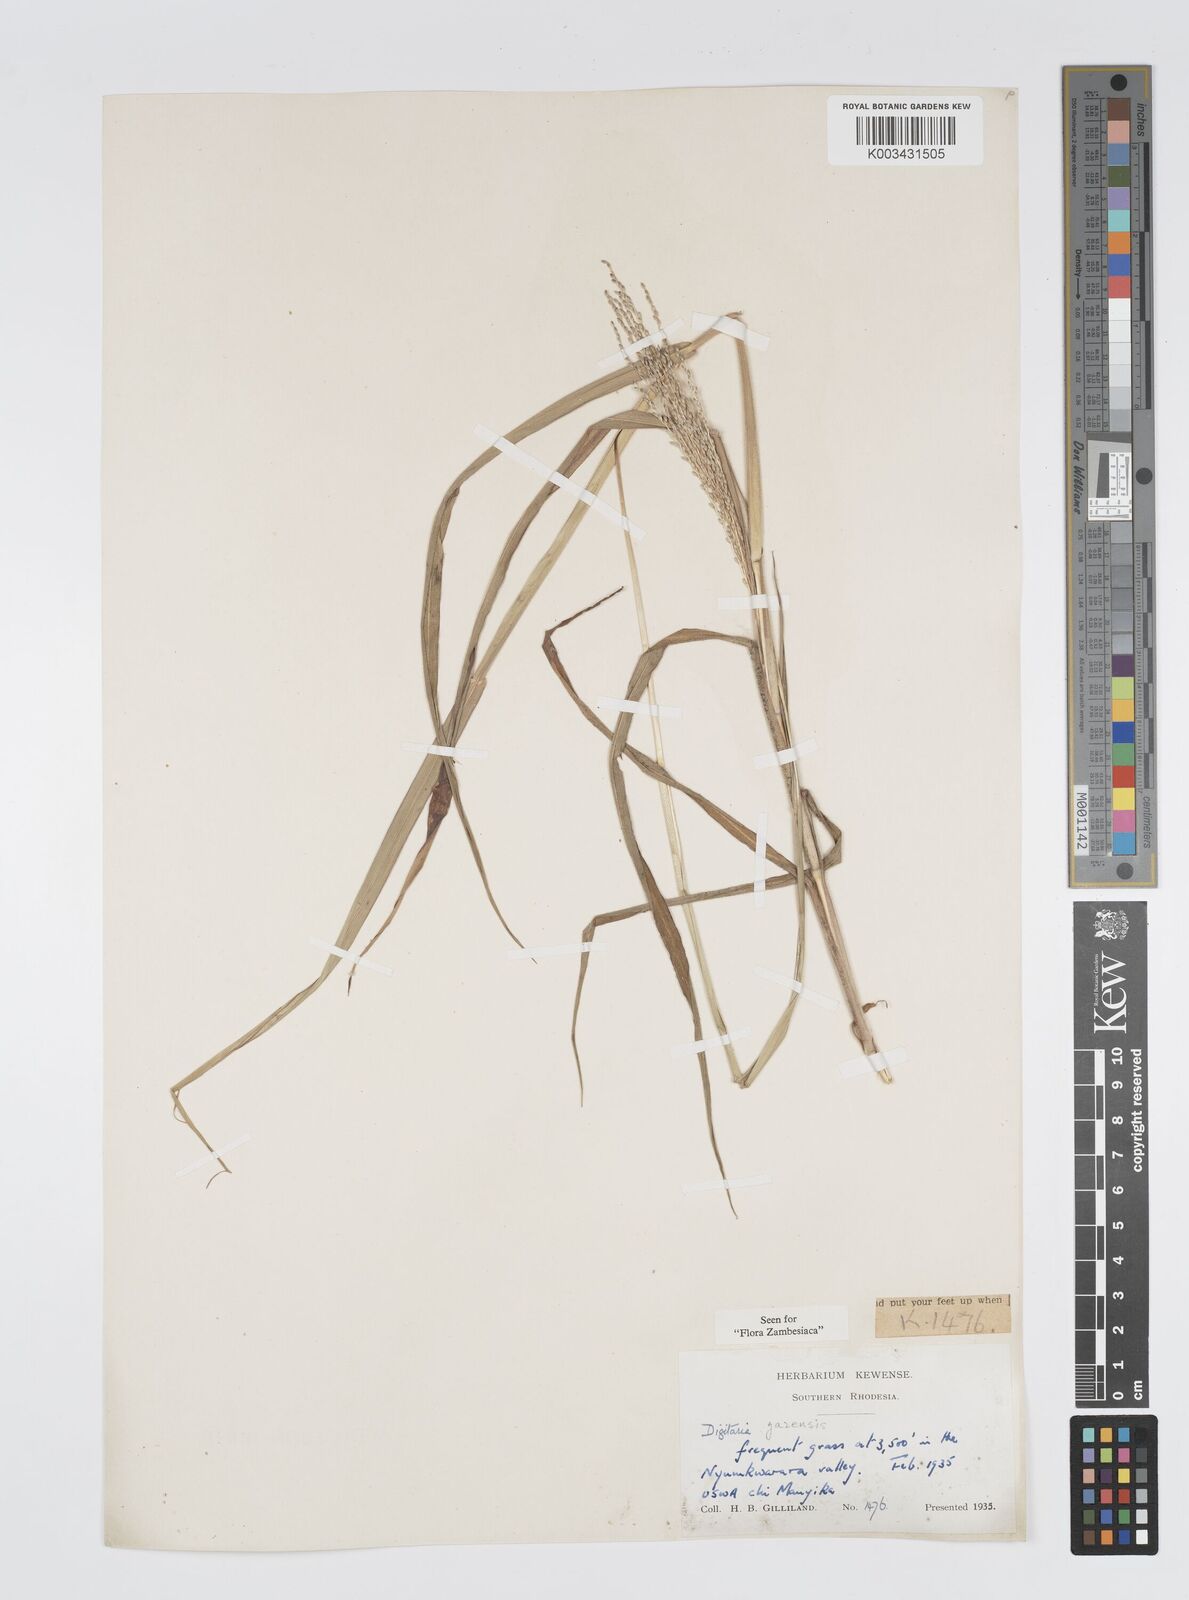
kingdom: Plantae
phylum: Tracheophyta
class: Liliopsida
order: Poales
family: Poaceae
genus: Digitaria
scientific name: Digitaria gazensis
